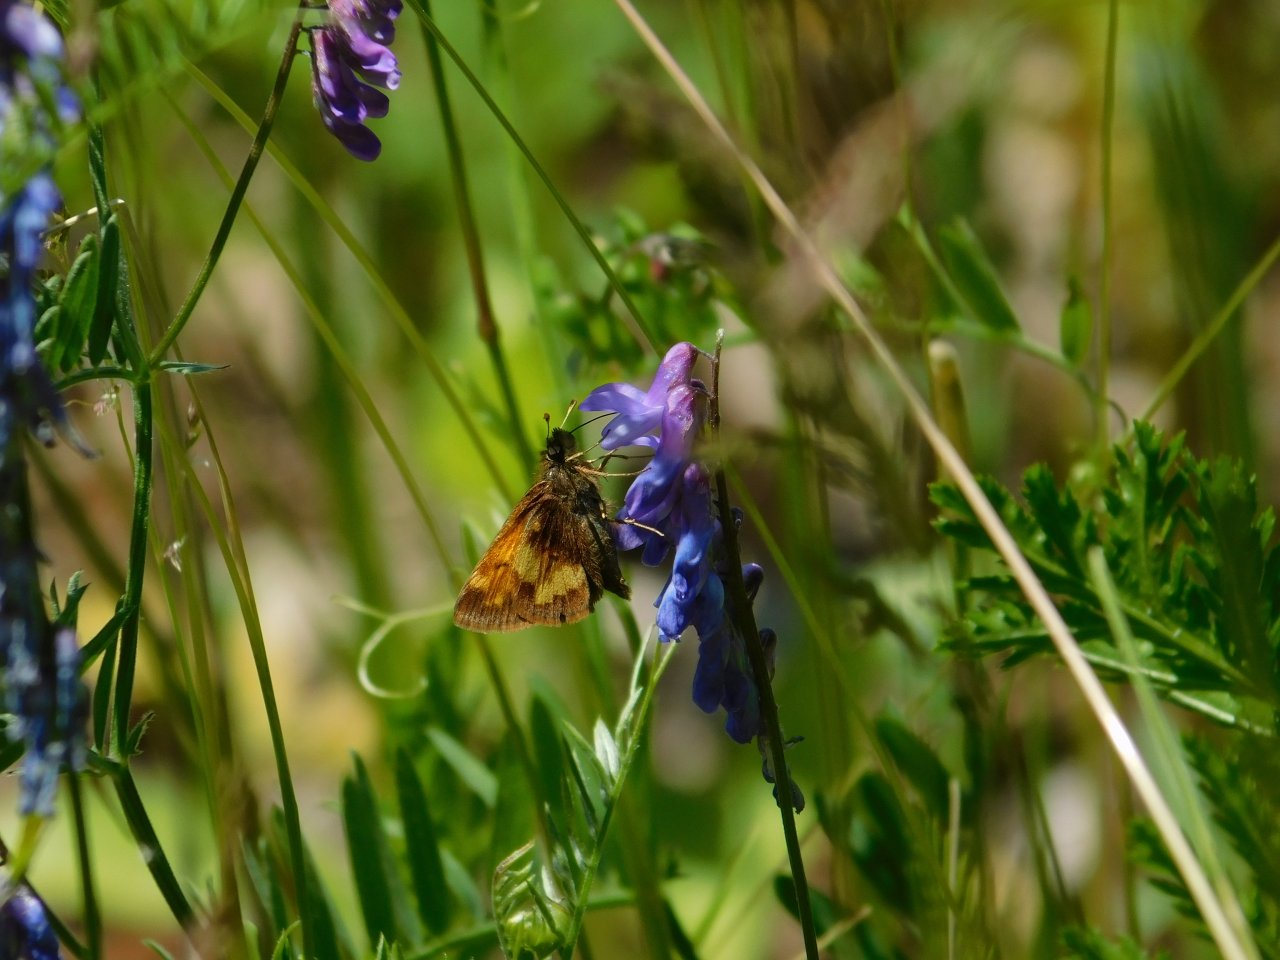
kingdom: Animalia
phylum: Arthropoda
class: Insecta
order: Lepidoptera
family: Hesperiidae
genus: Lon
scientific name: Lon hobomok
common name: Hobomok Skipper
